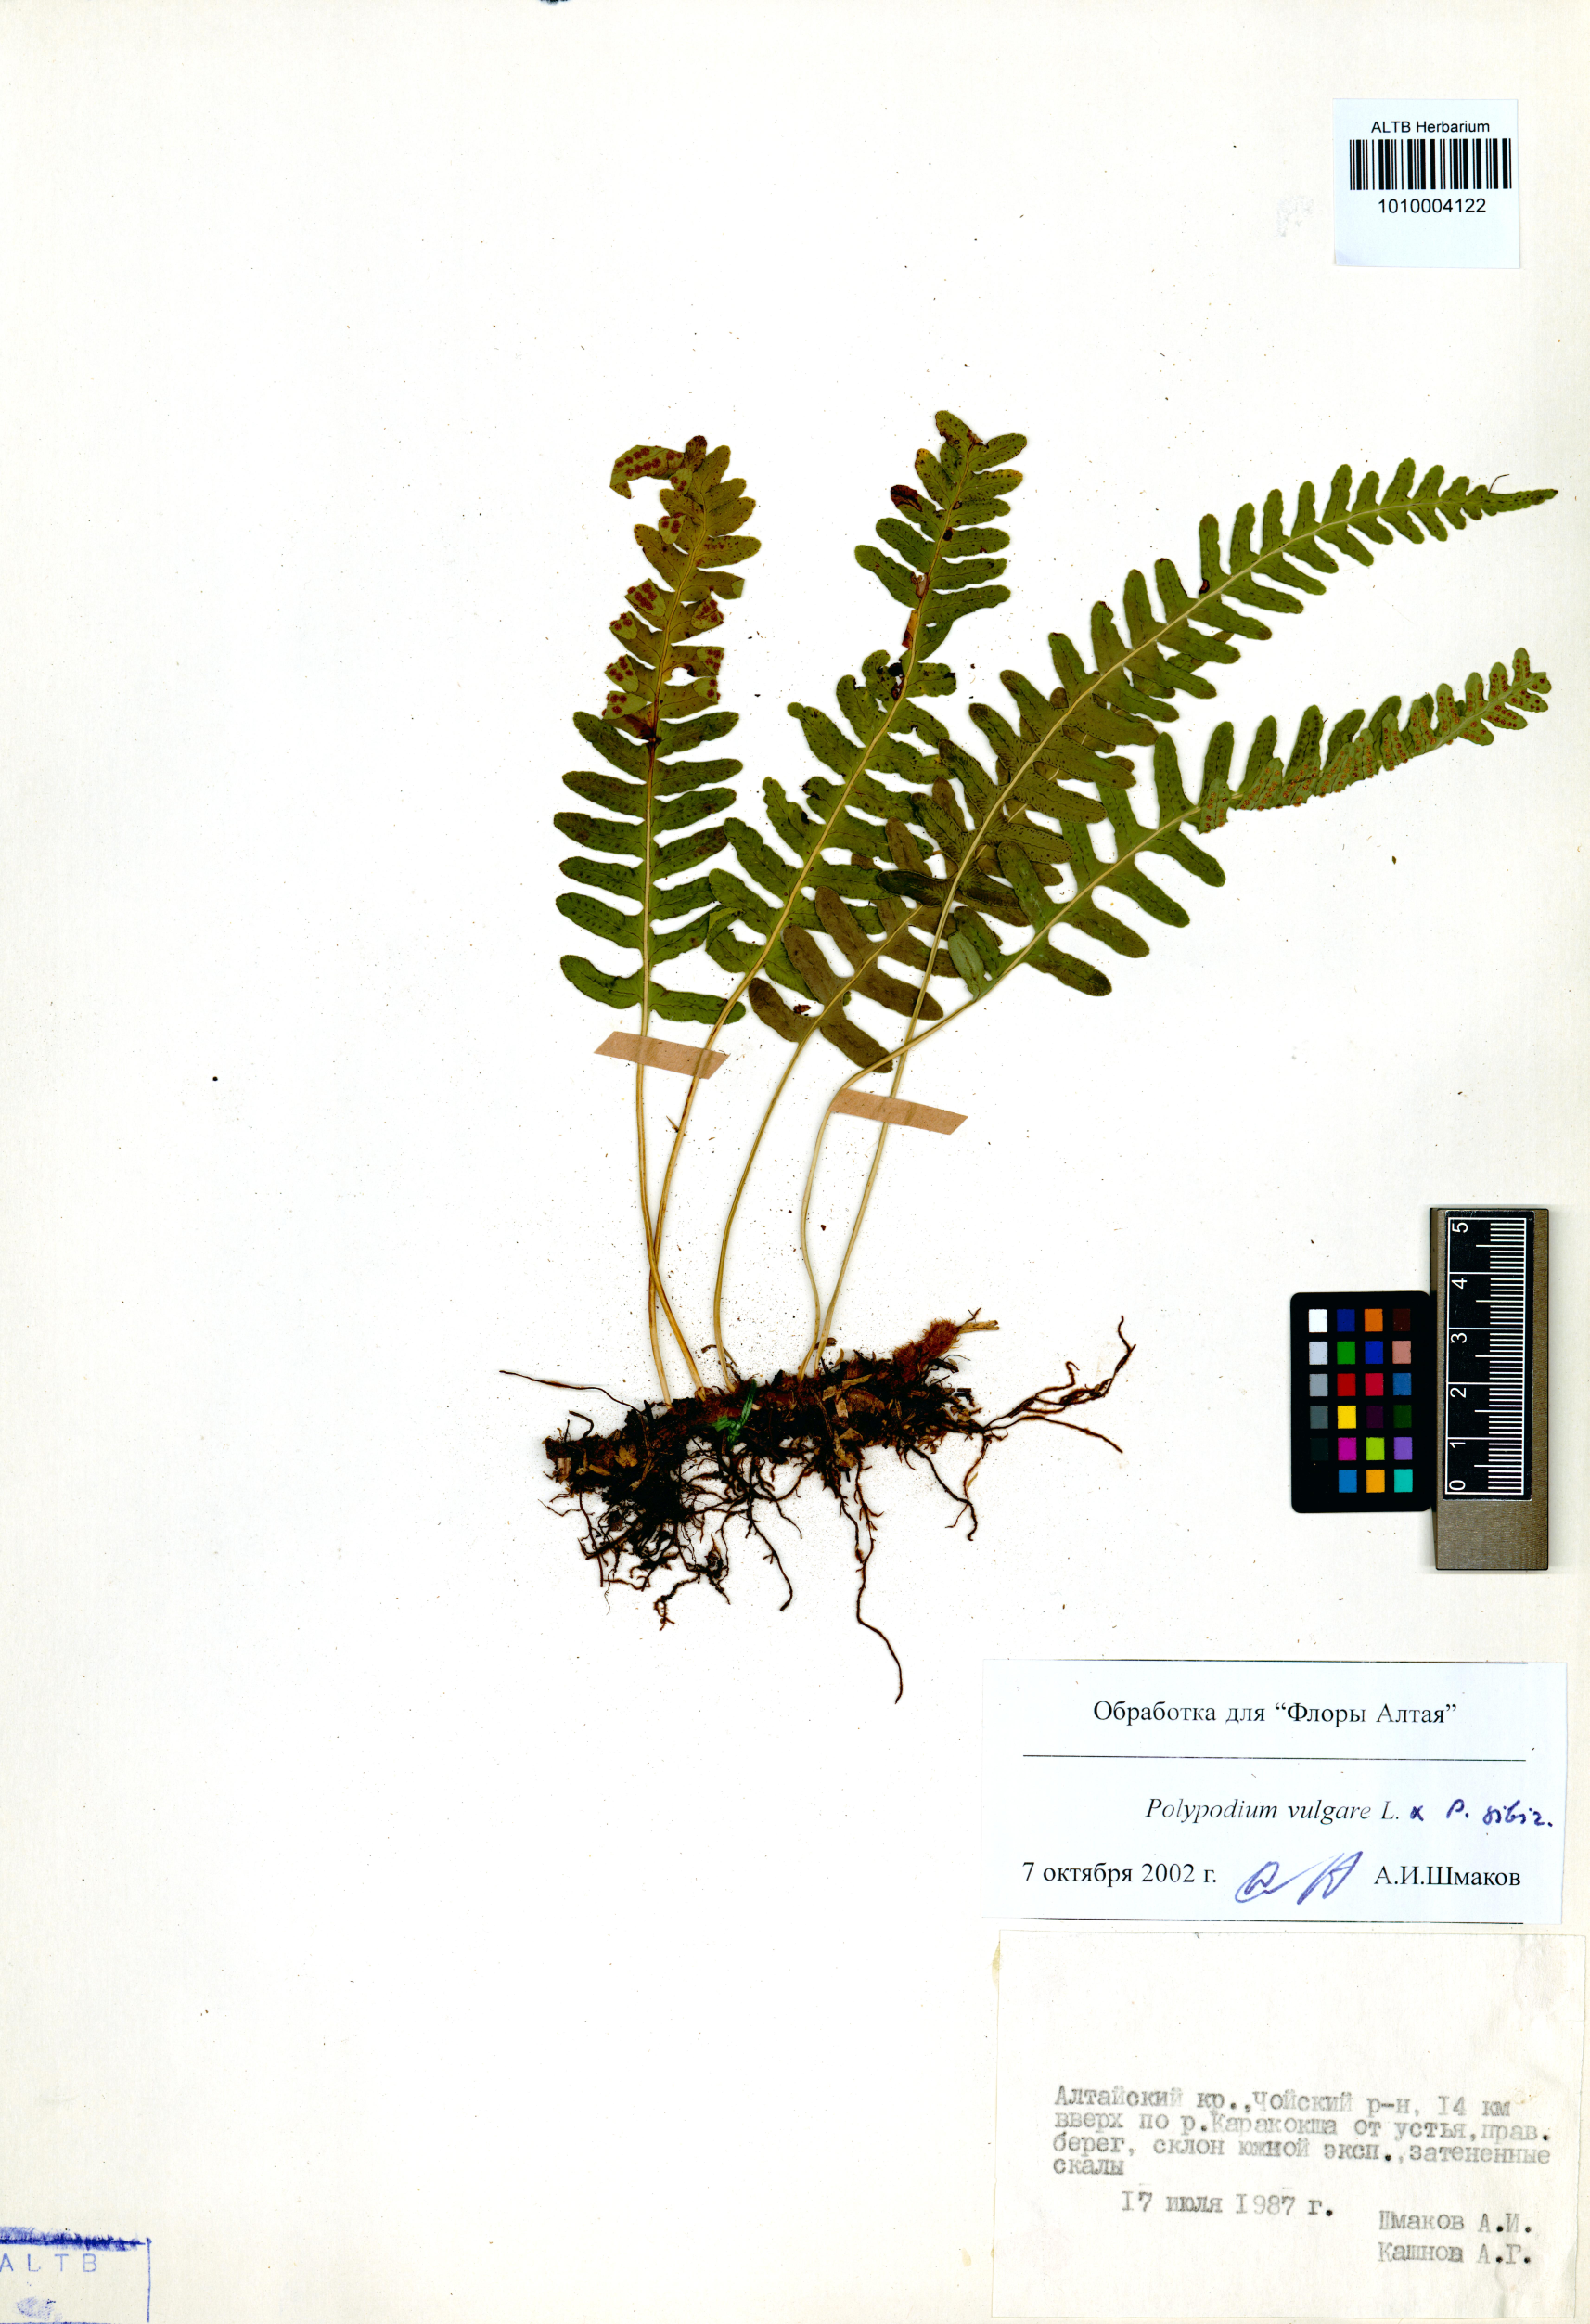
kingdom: Plantae
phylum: Tracheophyta
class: Polypodiopsida
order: Polypodiales
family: Polypodiaceae
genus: Polypodium
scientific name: Polypodium vulgare
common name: Common polypody
